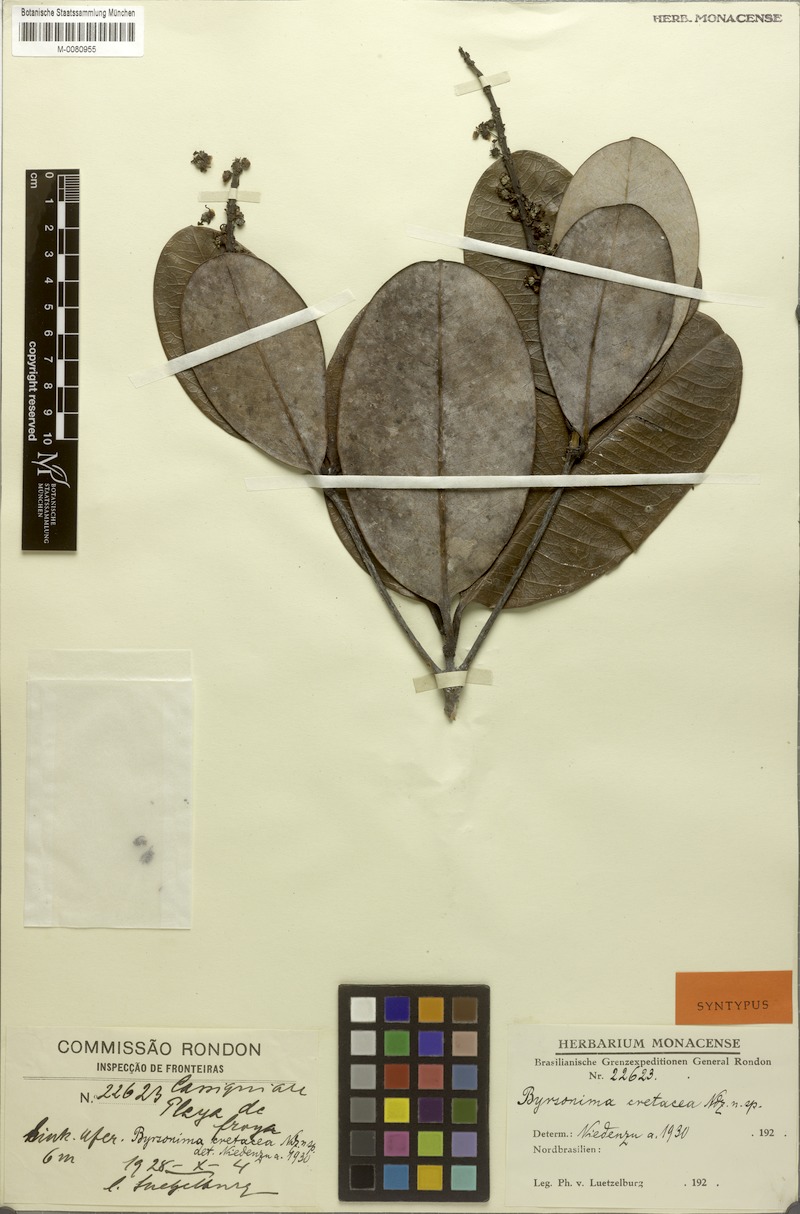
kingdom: Plantae
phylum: Tracheophyta
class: Magnoliopsida
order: Malpighiales
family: Malpighiaceae
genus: Byrsonima
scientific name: Byrsonima luetzelburgii
